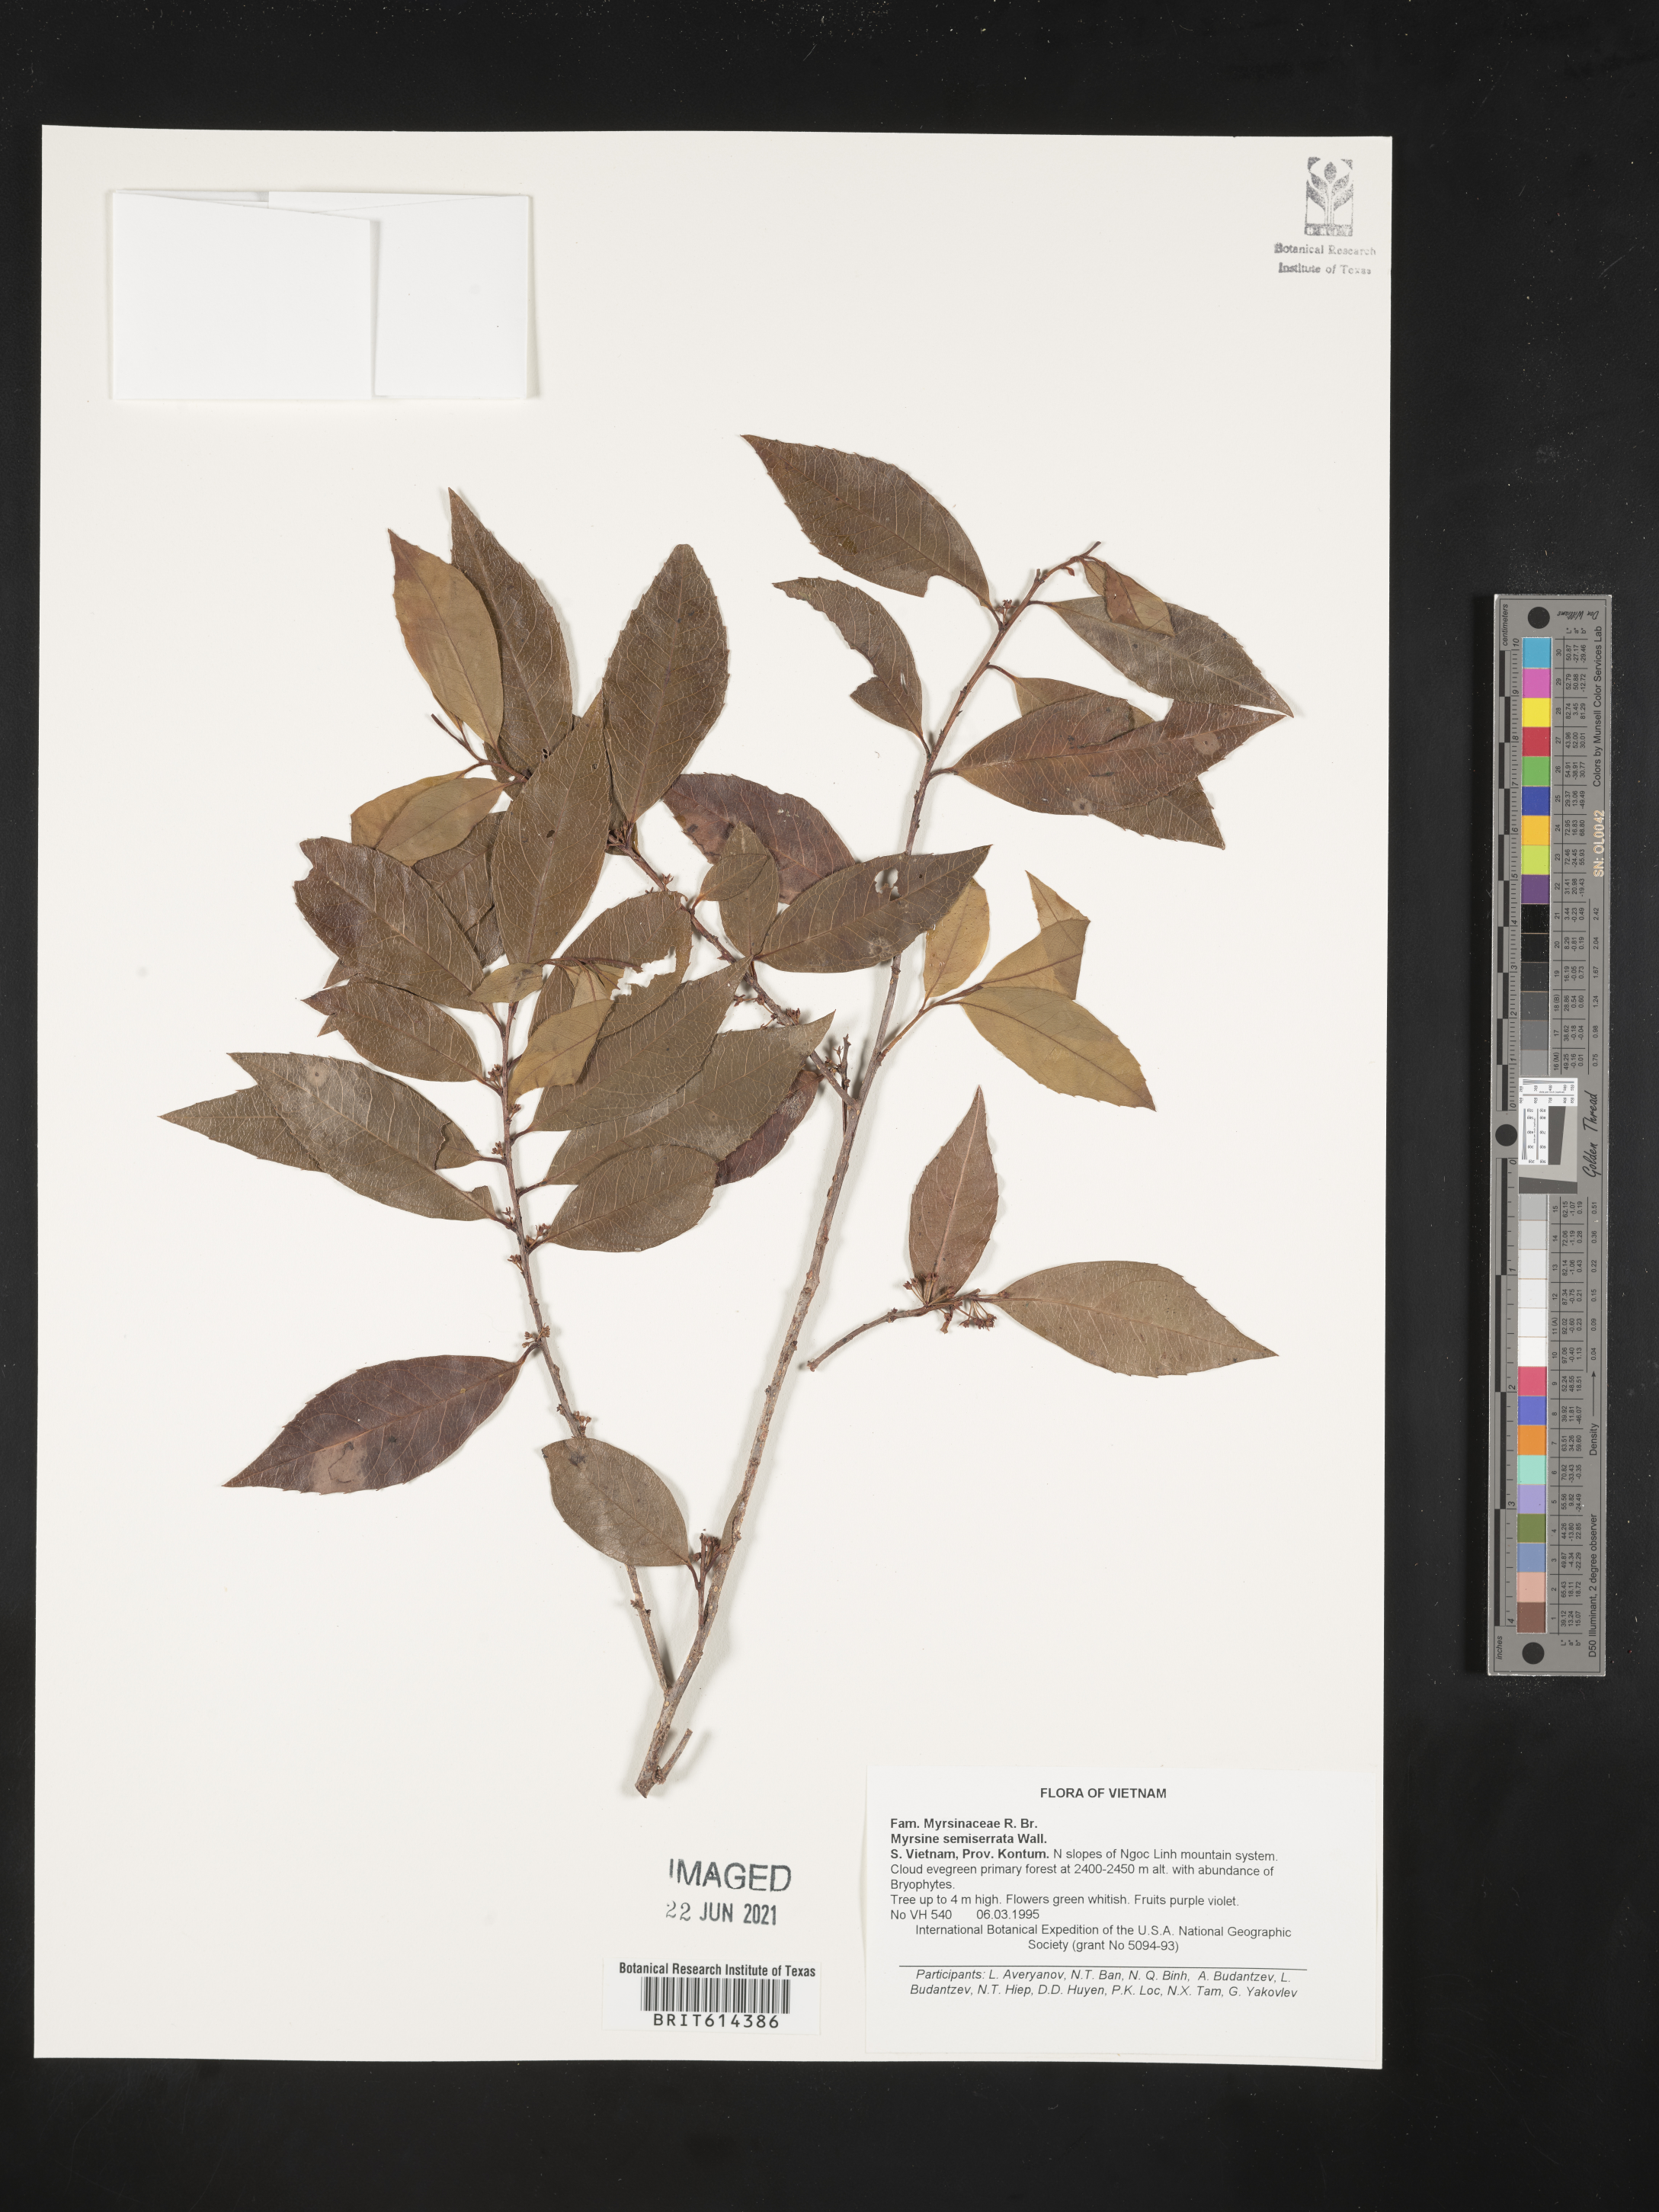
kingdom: Plantae
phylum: Tracheophyta
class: Magnoliopsida
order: Ericales
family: Primulaceae
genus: Myrsine
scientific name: Myrsine semiserrata
